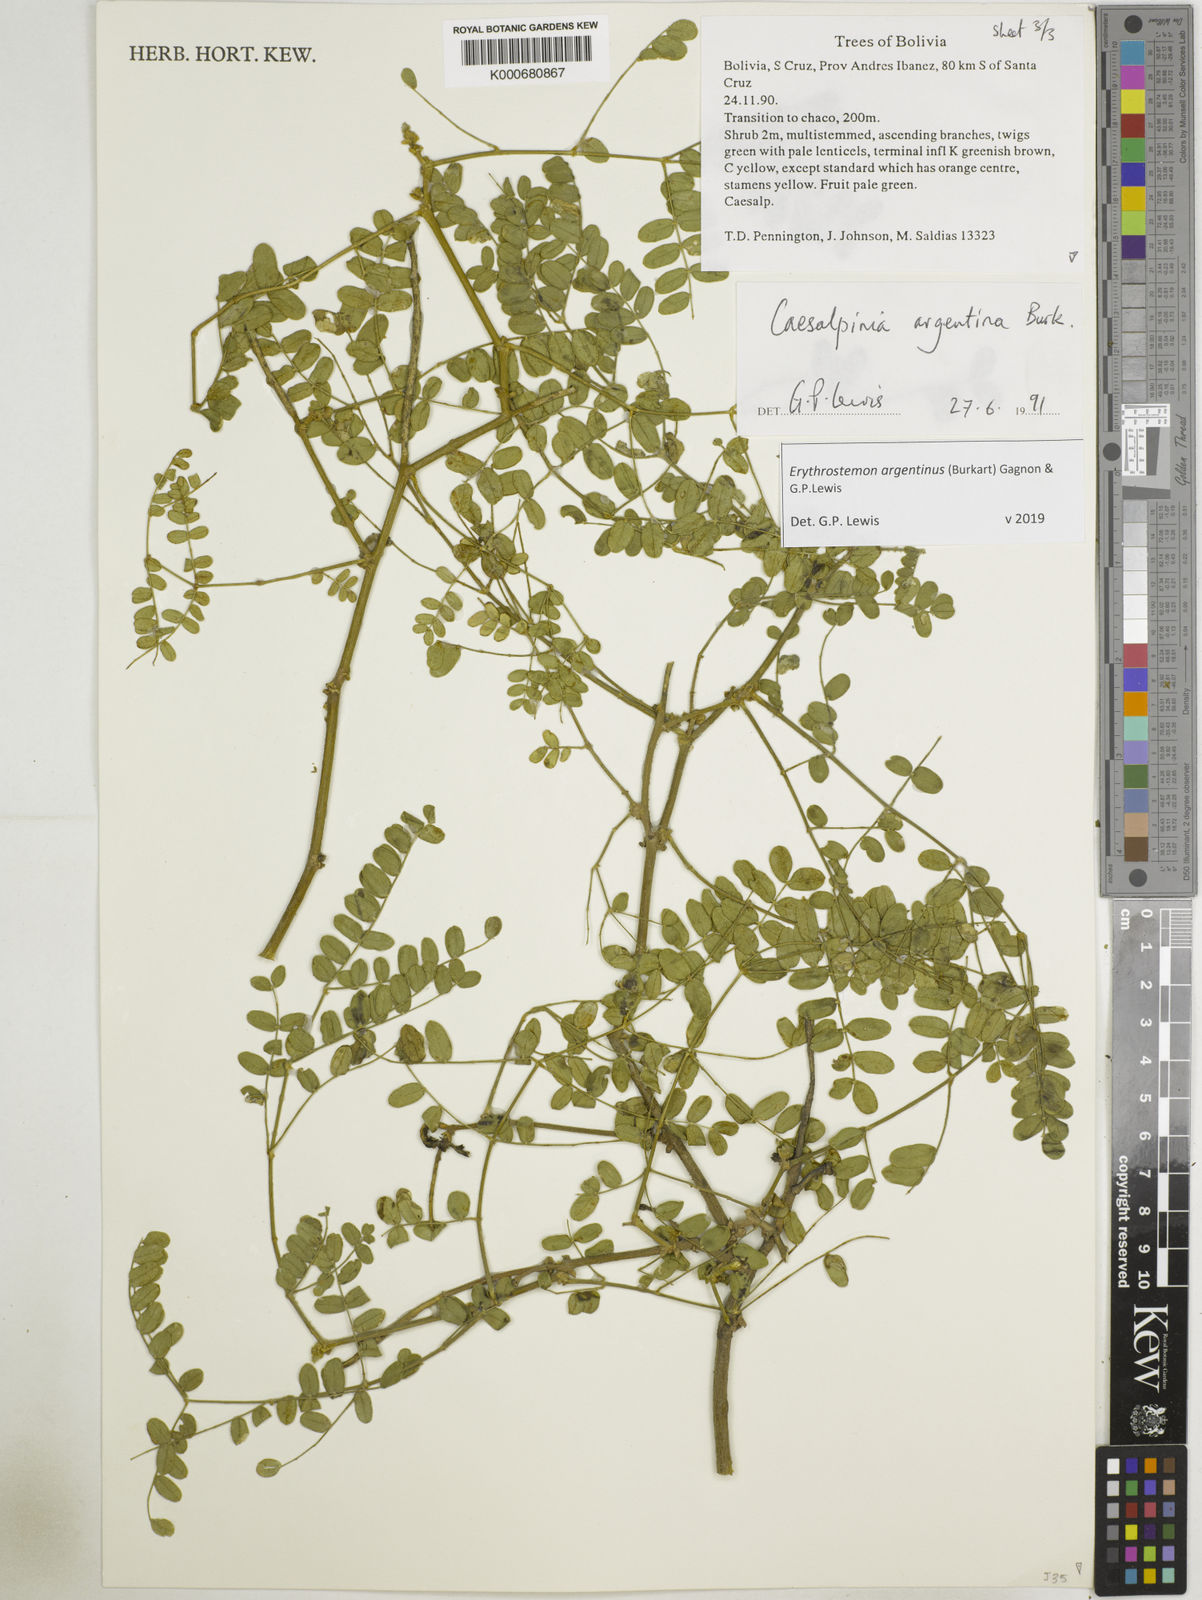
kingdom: Plantae
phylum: Tracheophyta
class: Magnoliopsida
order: Fabales
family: Fabaceae
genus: Erythrostemon
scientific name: Erythrostemon argentinus
